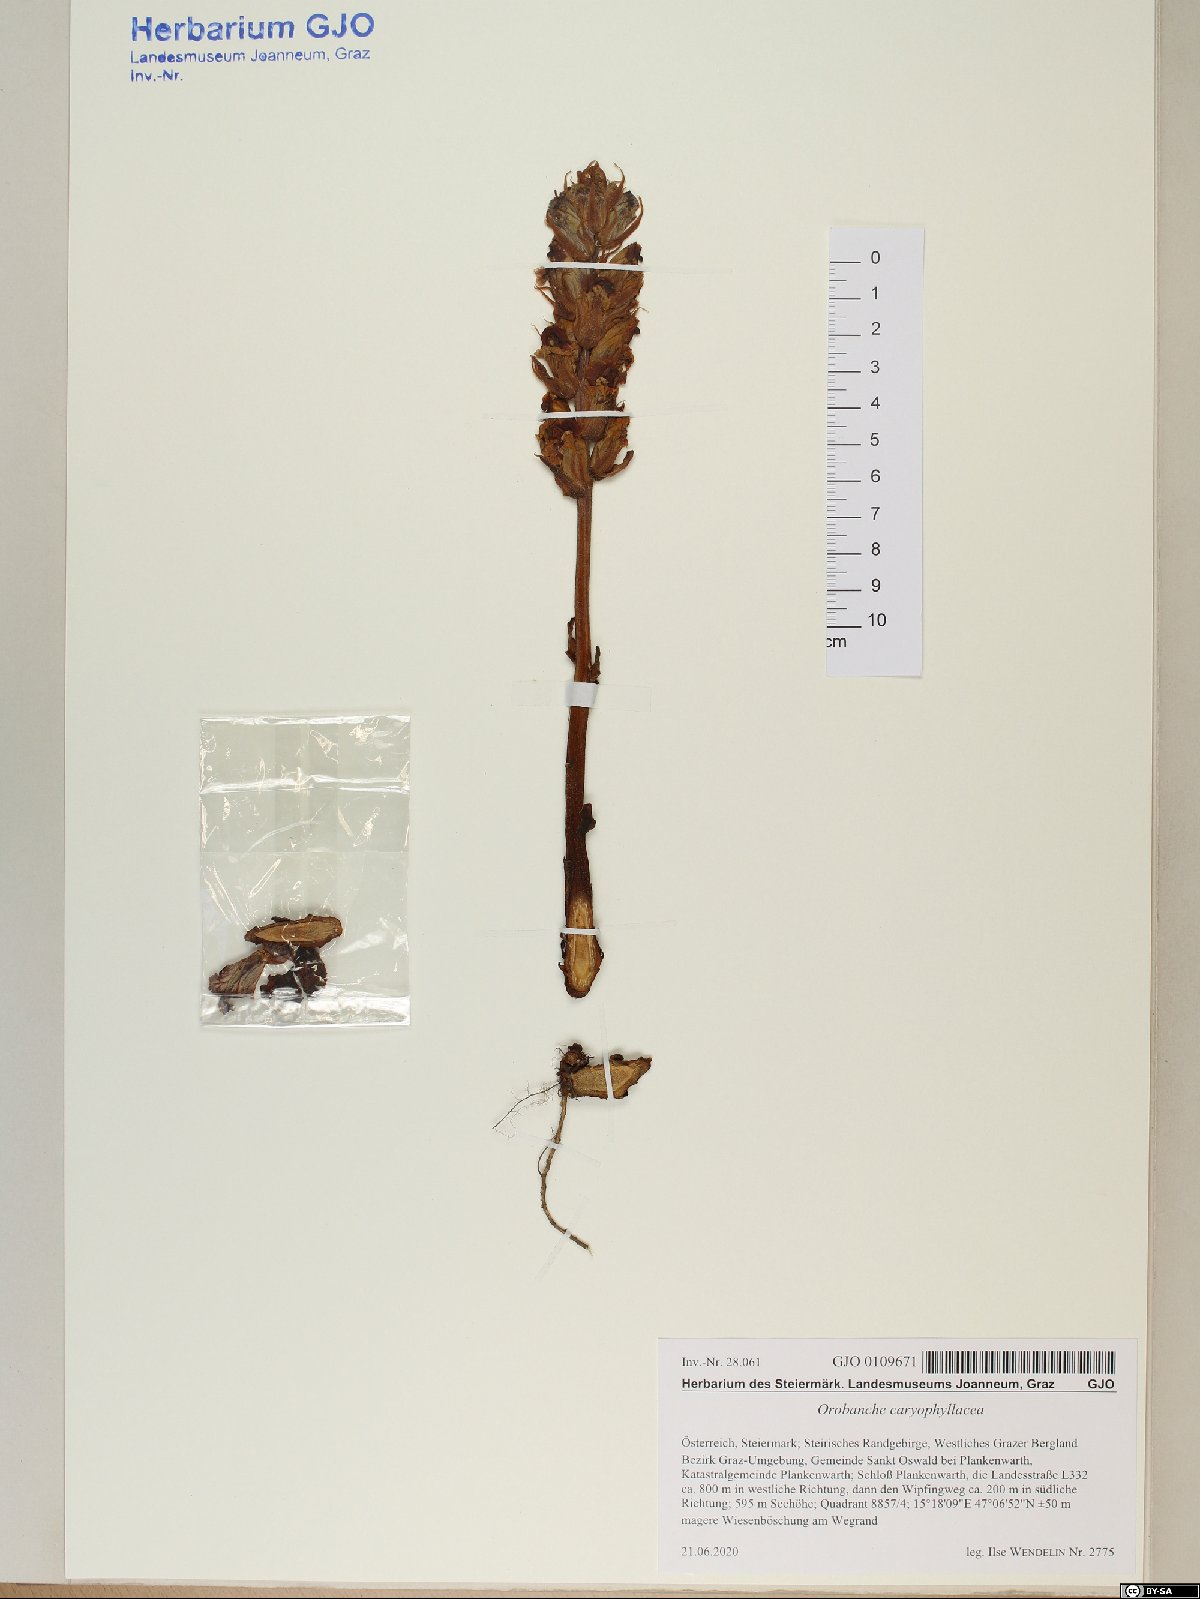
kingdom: Plantae
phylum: Tracheophyta
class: Magnoliopsida
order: Lamiales
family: Orobanchaceae
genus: Orobanche
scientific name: Orobanche caryophyllacea
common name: Bedstraw broomrape
